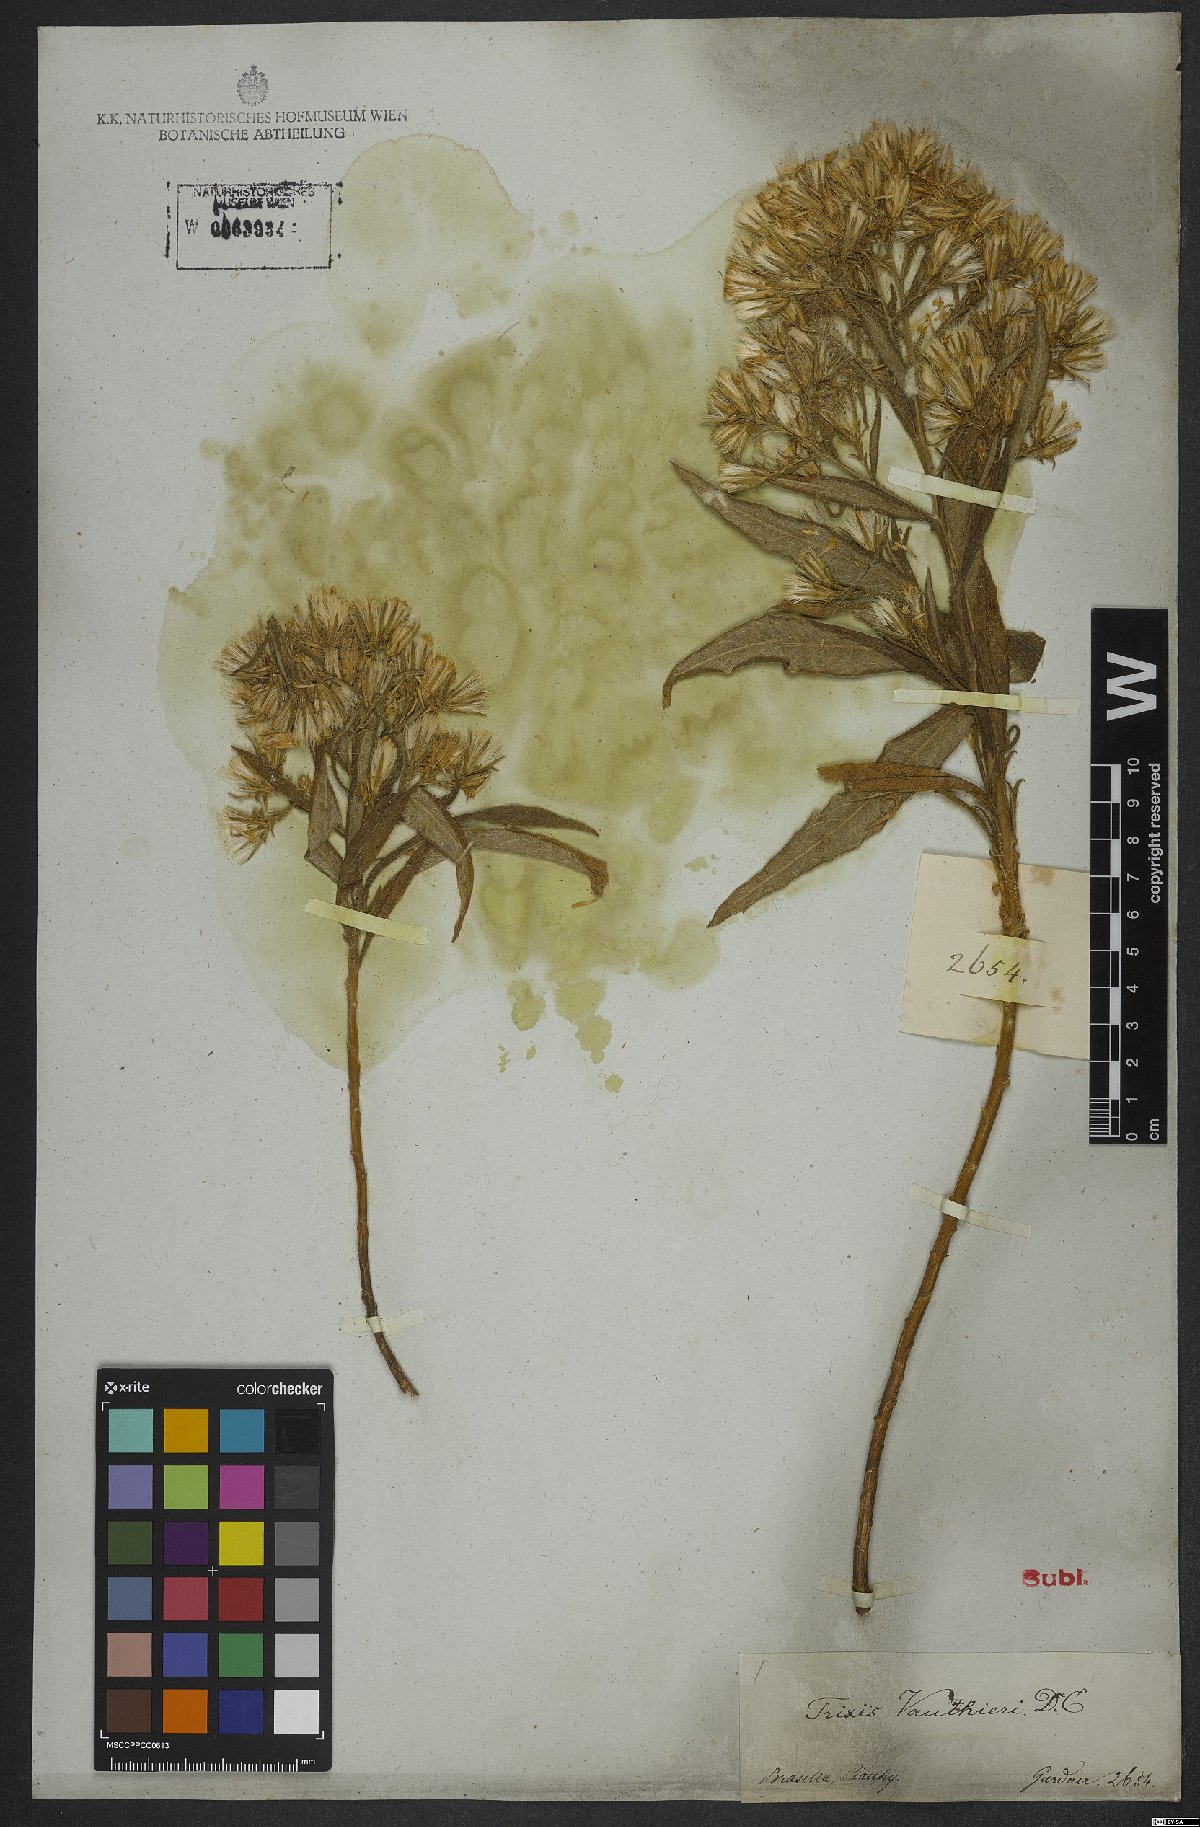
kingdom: Plantae
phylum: Tracheophyta
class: Magnoliopsida
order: Asterales
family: Asteraceae
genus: Trixis
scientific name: Trixis vauthieri
